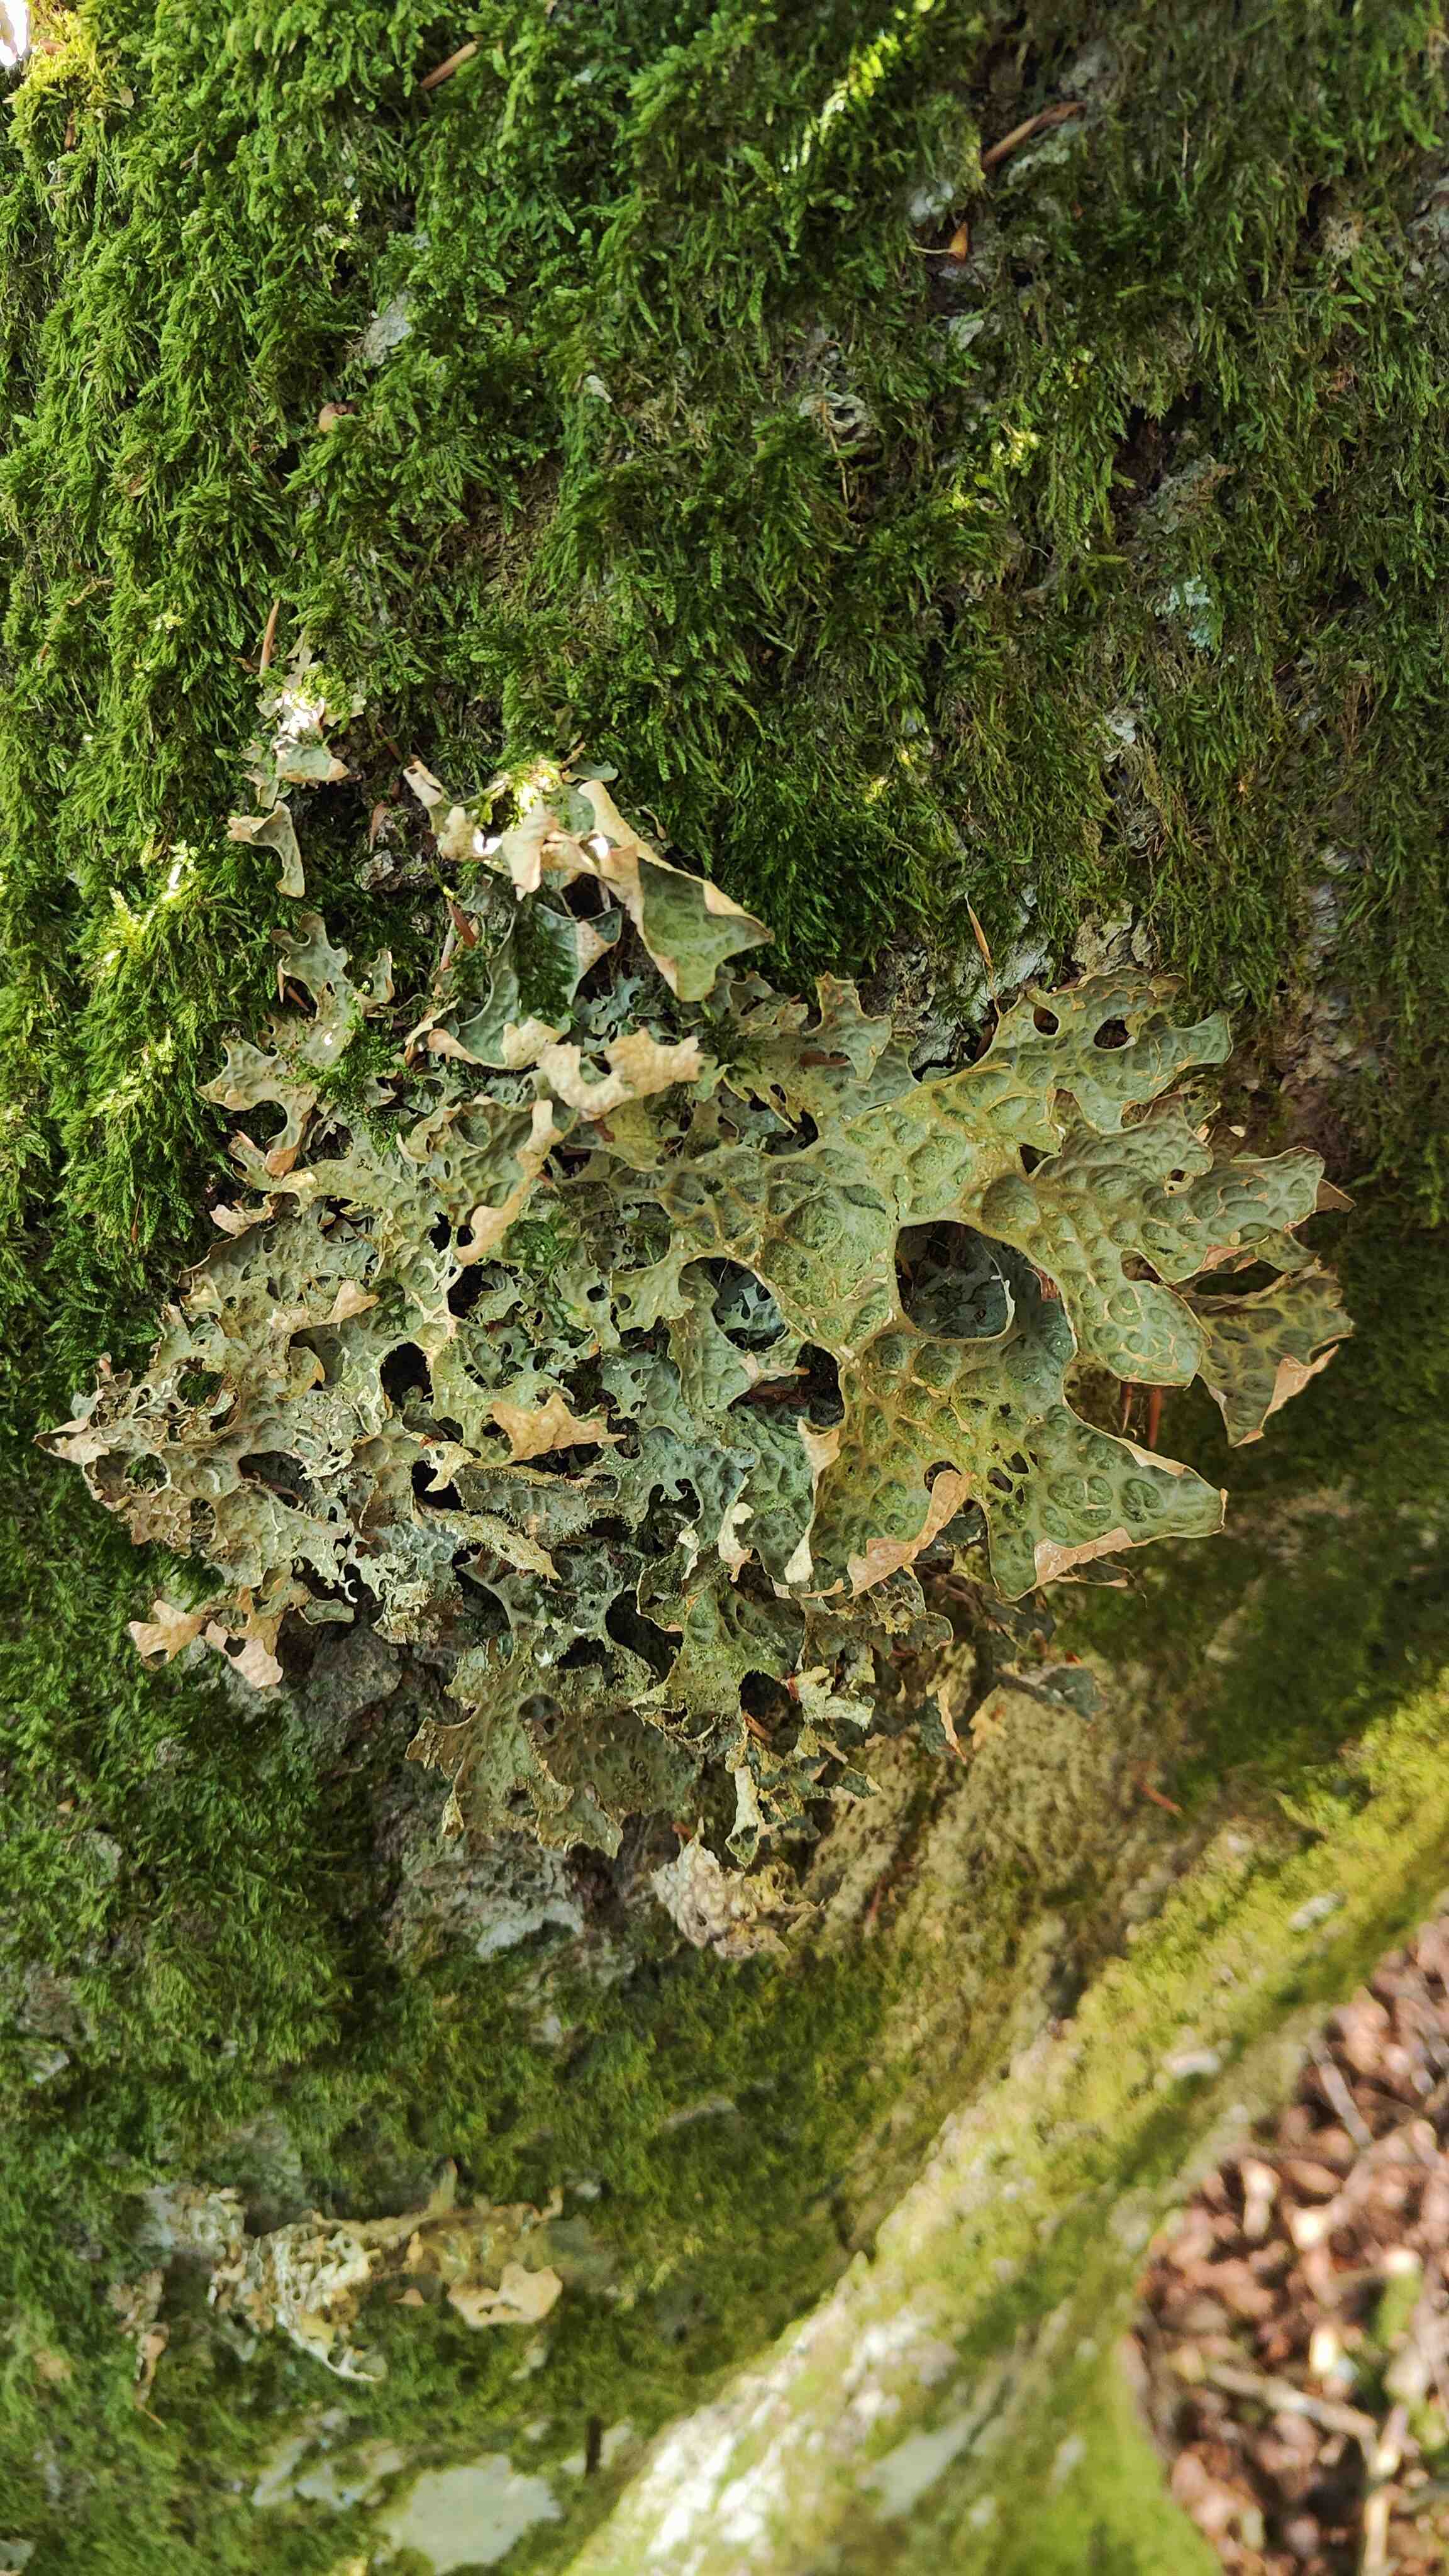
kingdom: Fungi
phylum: Ascomycota
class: Lecanoromycetes
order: Peltigerales
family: Lobariaceae
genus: Lobaria
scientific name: Lobaria pulmonaria
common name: almindelig lungelav
